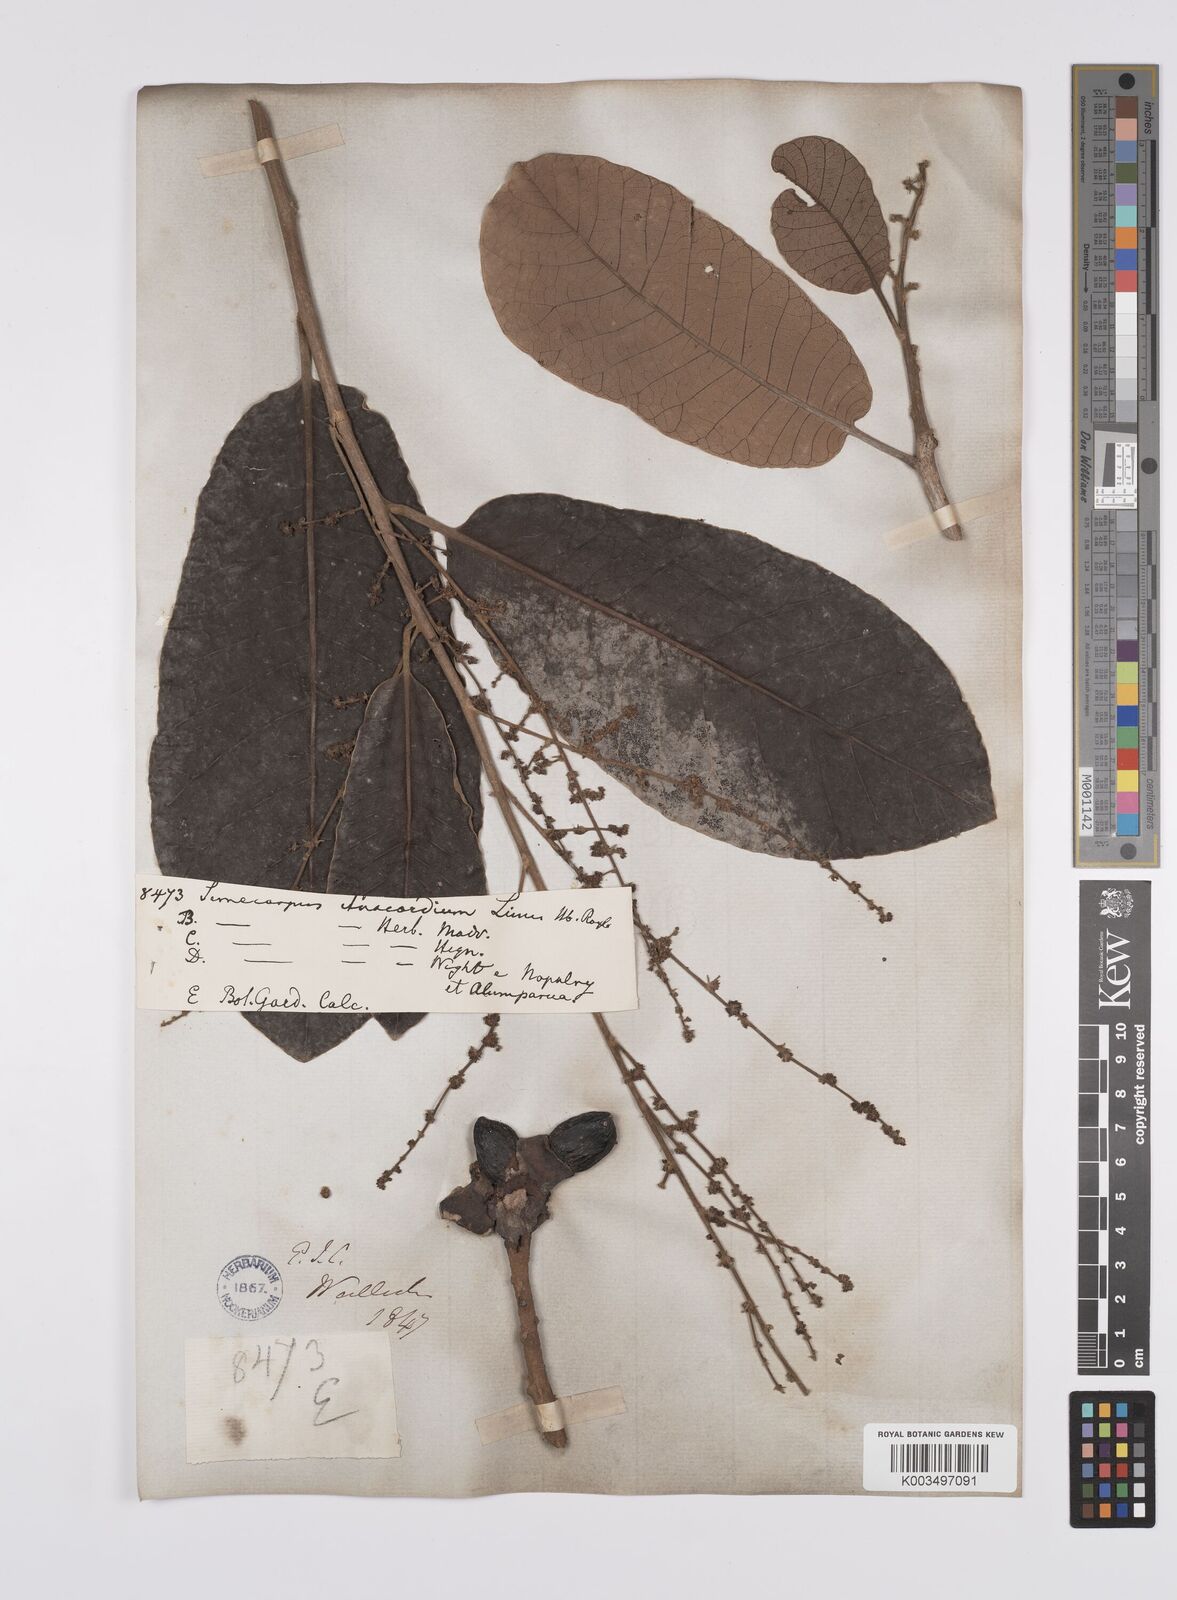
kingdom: Plantae
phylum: Tracheophyta
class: Magnoliopsida
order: Sapindales
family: Anacardiaceae
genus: Semecarpus
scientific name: Semecarpus anacardium
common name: Marking nut-tree
